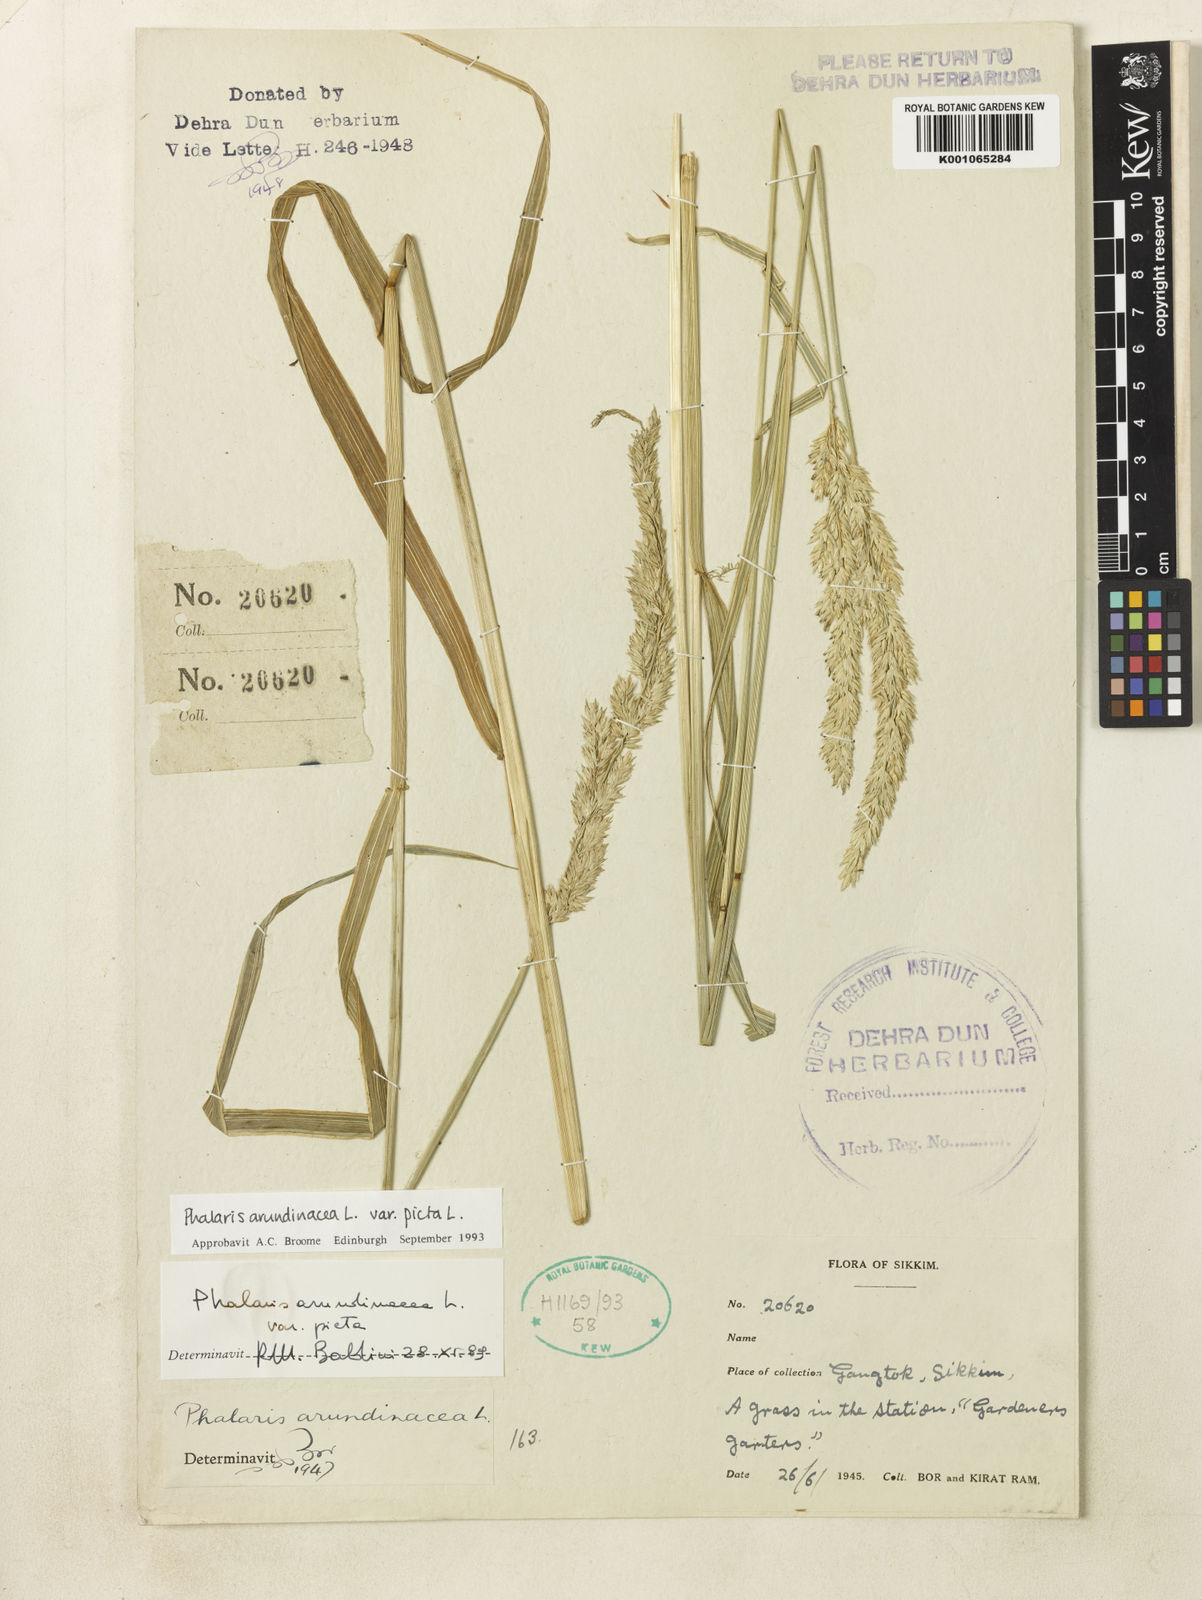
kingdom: Plantae
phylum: Tracheophyta
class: Liliopsida
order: Poales
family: Poaceae
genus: Phalaris
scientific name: Phalaris arundinacea
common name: Reed canary-grass
